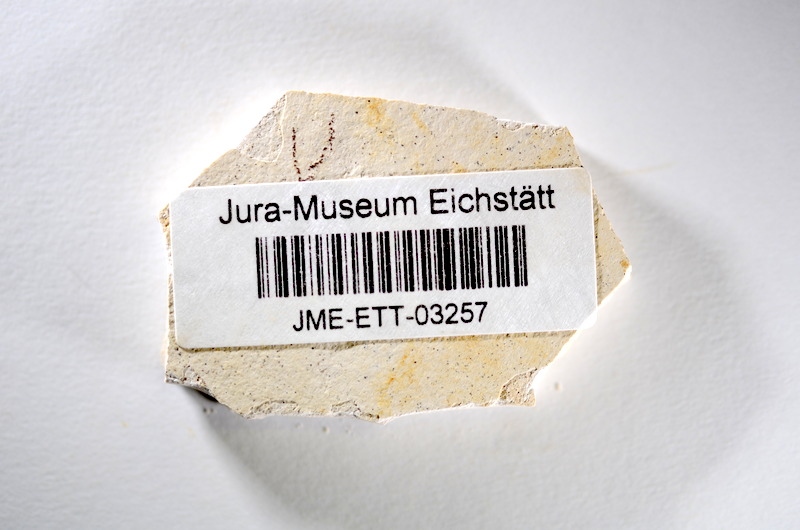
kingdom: Animalia
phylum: Chordata
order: Salmoniformes
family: Orthogonikleithridae
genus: Orthogonikleithrus
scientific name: Orthogonikleithrus hoelli
